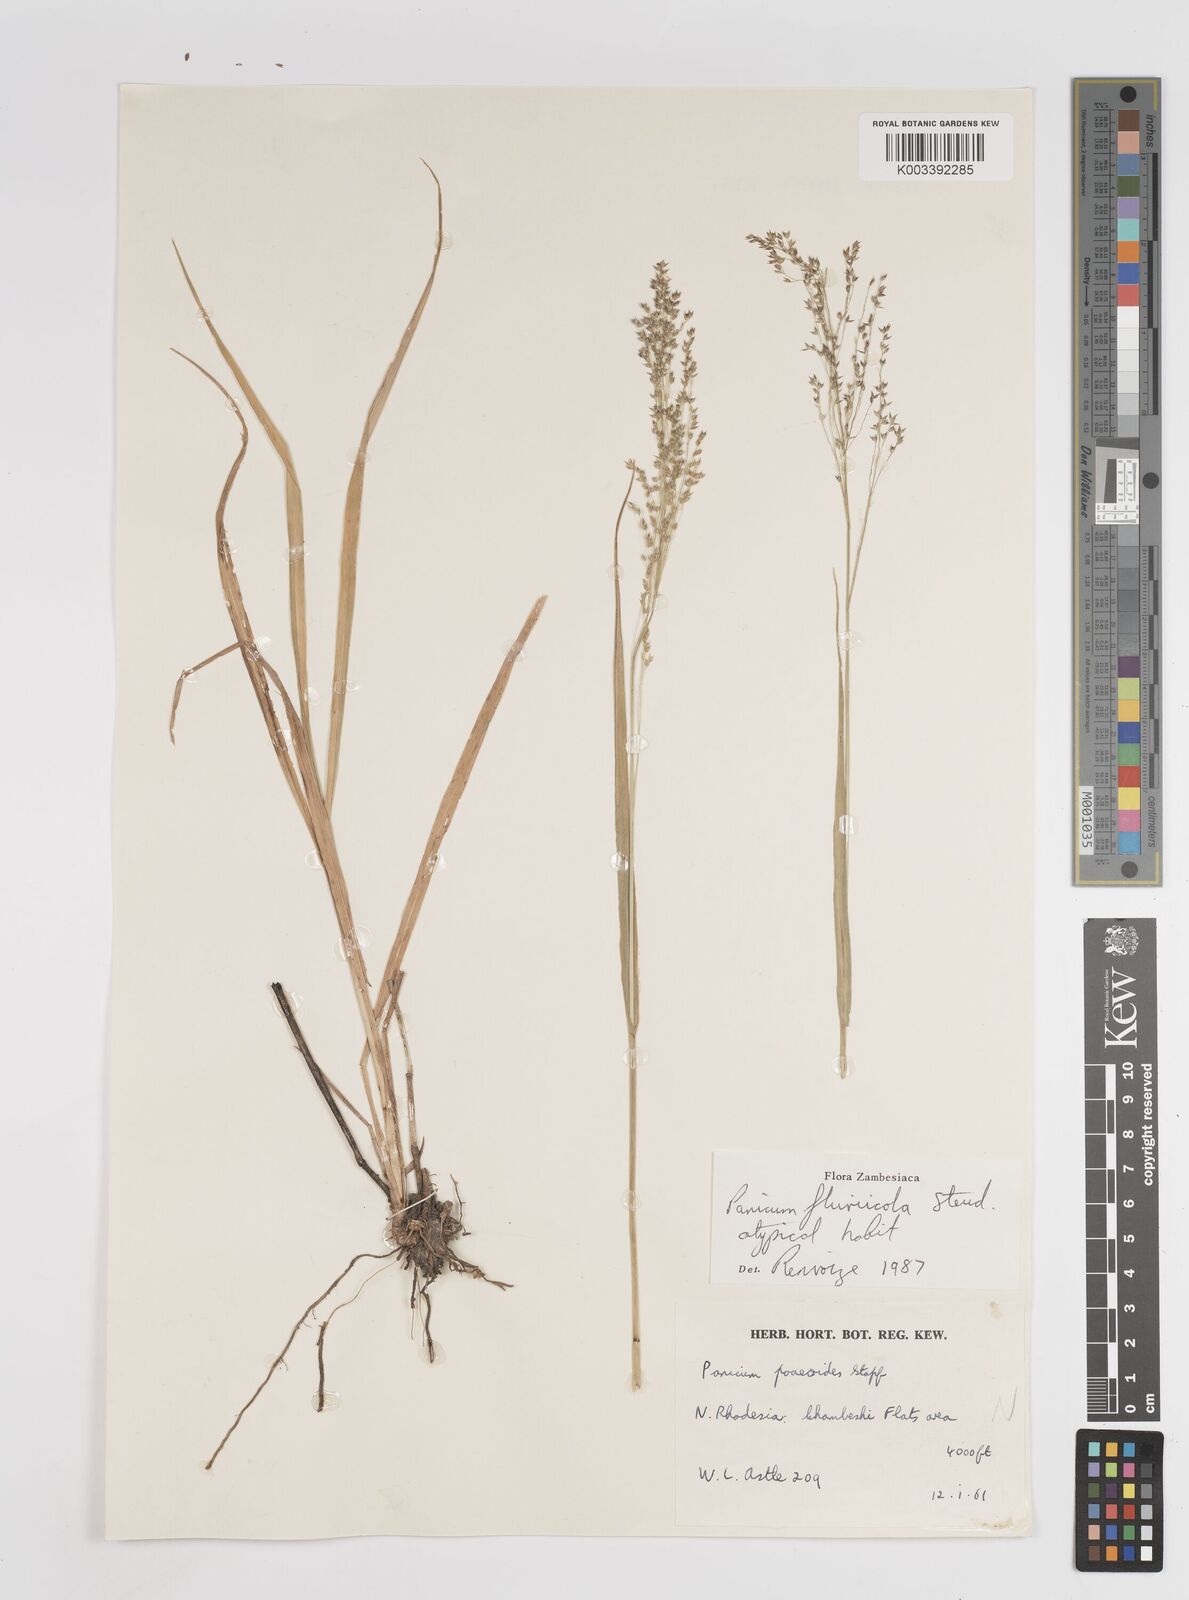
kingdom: Plantae
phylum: Tracheophyta
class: Liliopsida
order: Poales
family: Poaceae
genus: Panicum
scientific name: Panicum fluviicola
